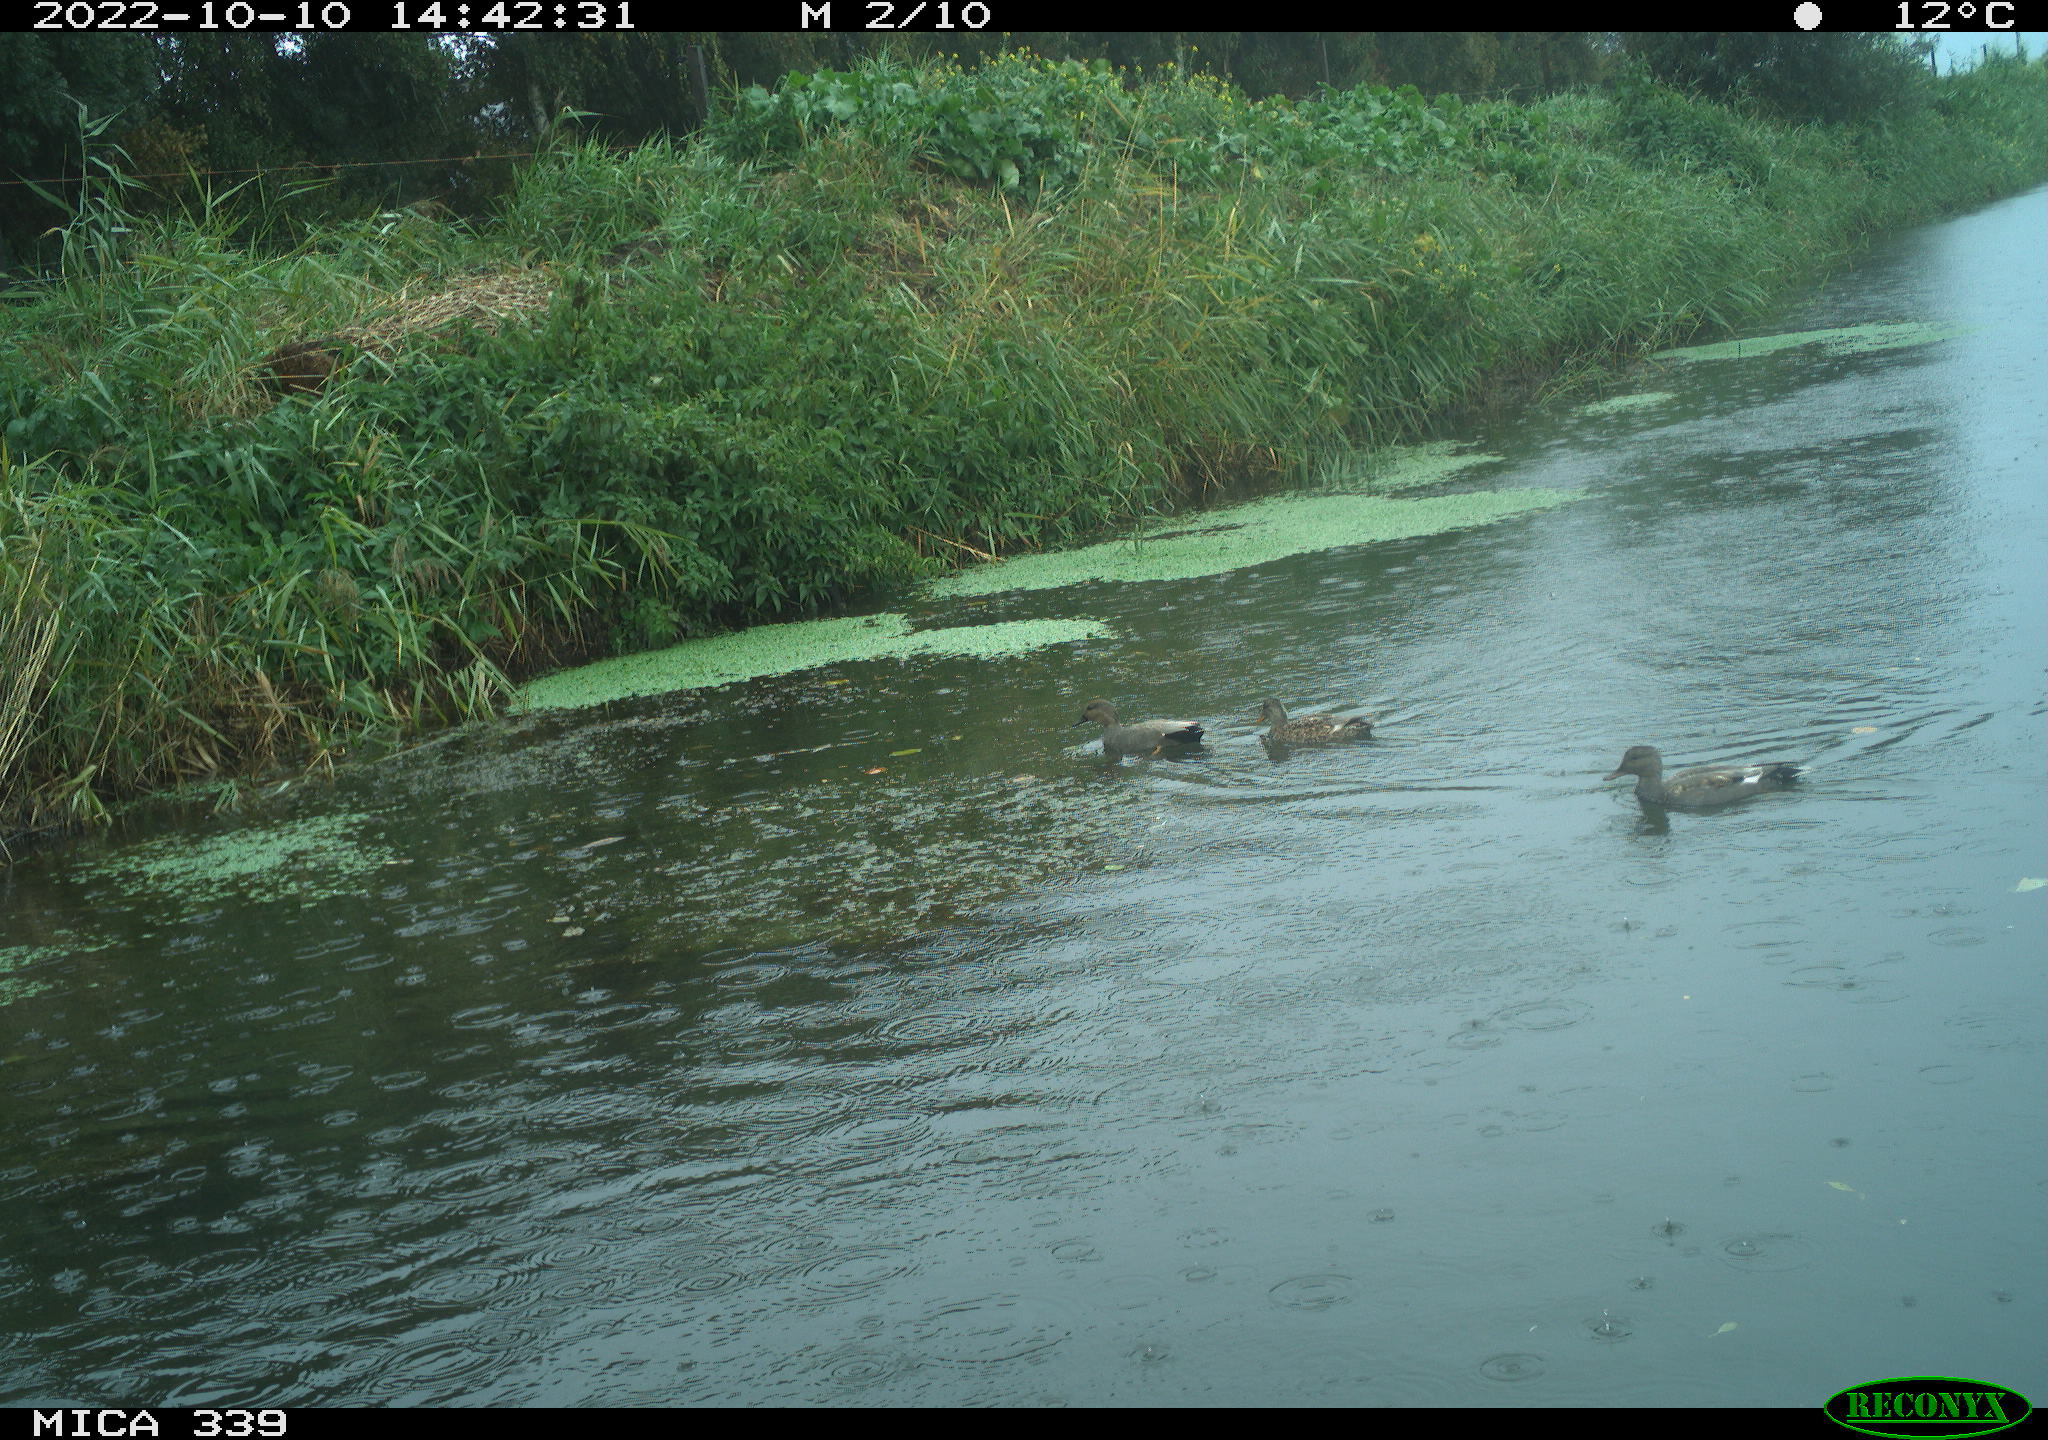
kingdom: Animalia
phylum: Chordata
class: Aves
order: Anseriformes
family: Anatidae
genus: Mareca
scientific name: Mareca strepera
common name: Gadwall
